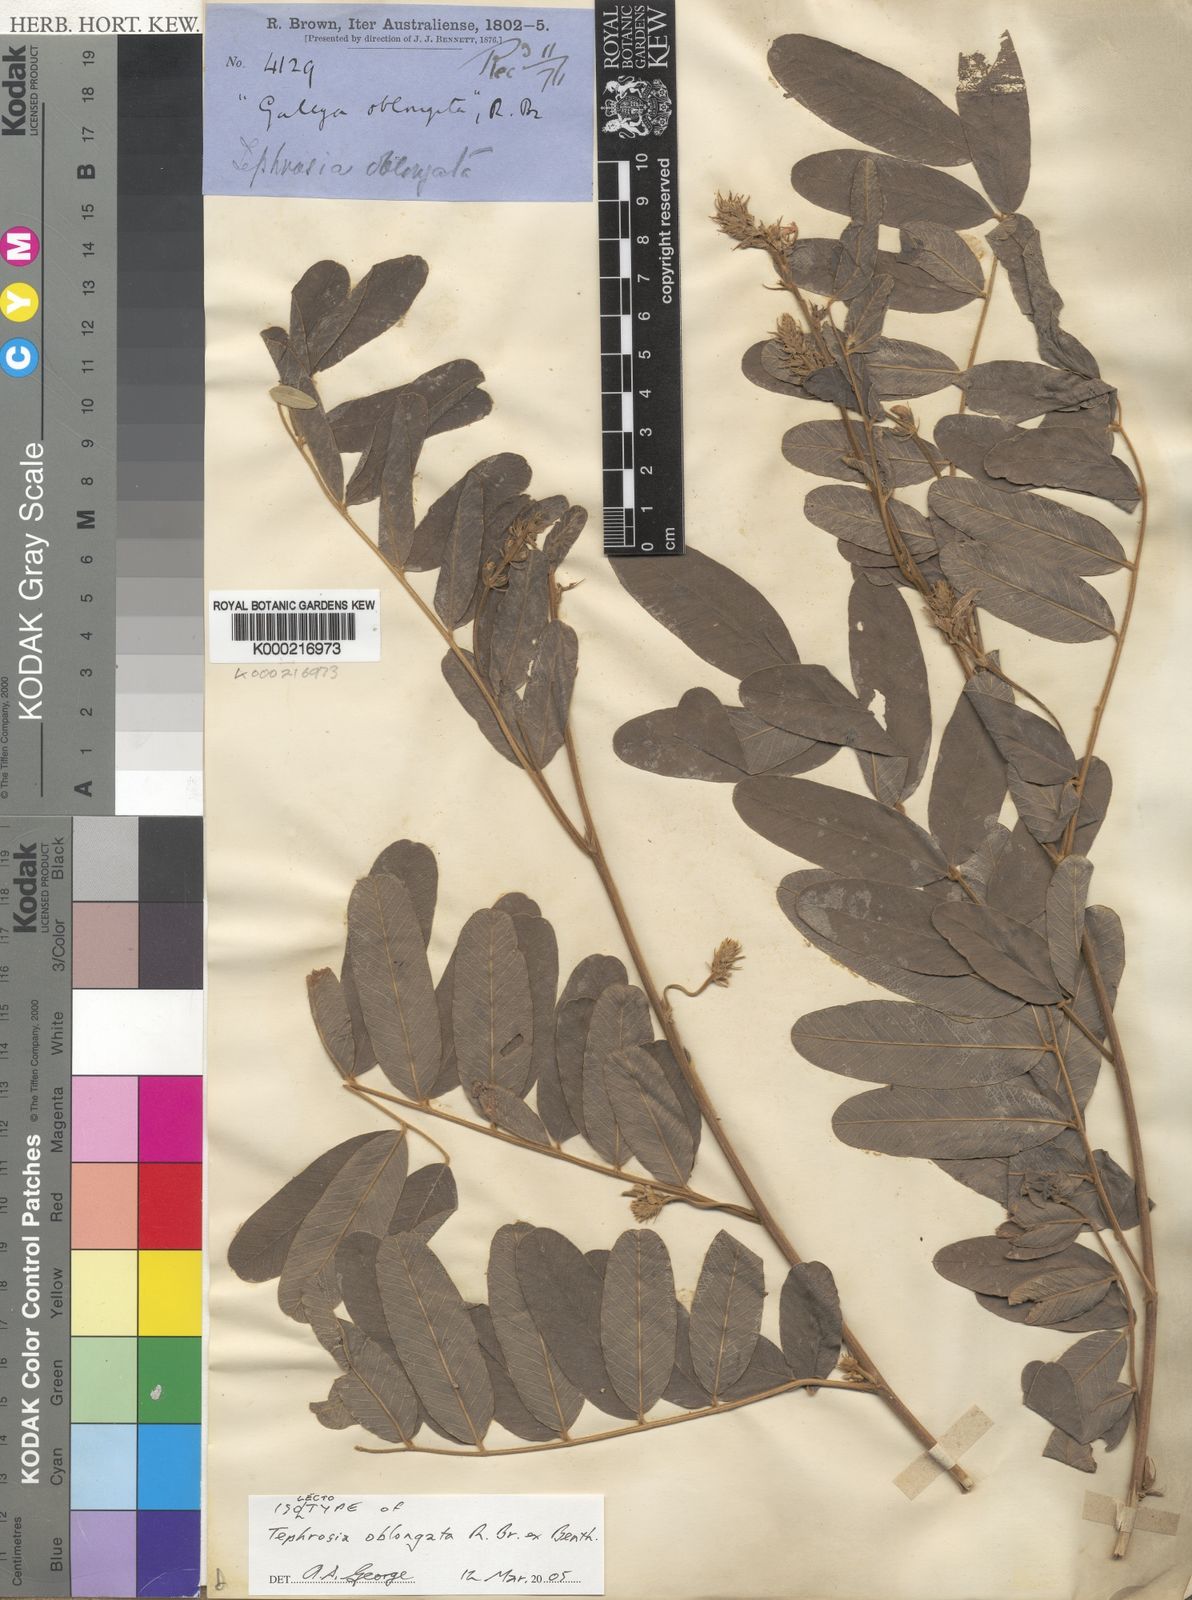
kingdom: Plantae
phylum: Tracheophyta
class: Magnoliopsida
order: Fabales
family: Fabaceae
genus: Tephrosia
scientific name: Tephrosia oblongata
